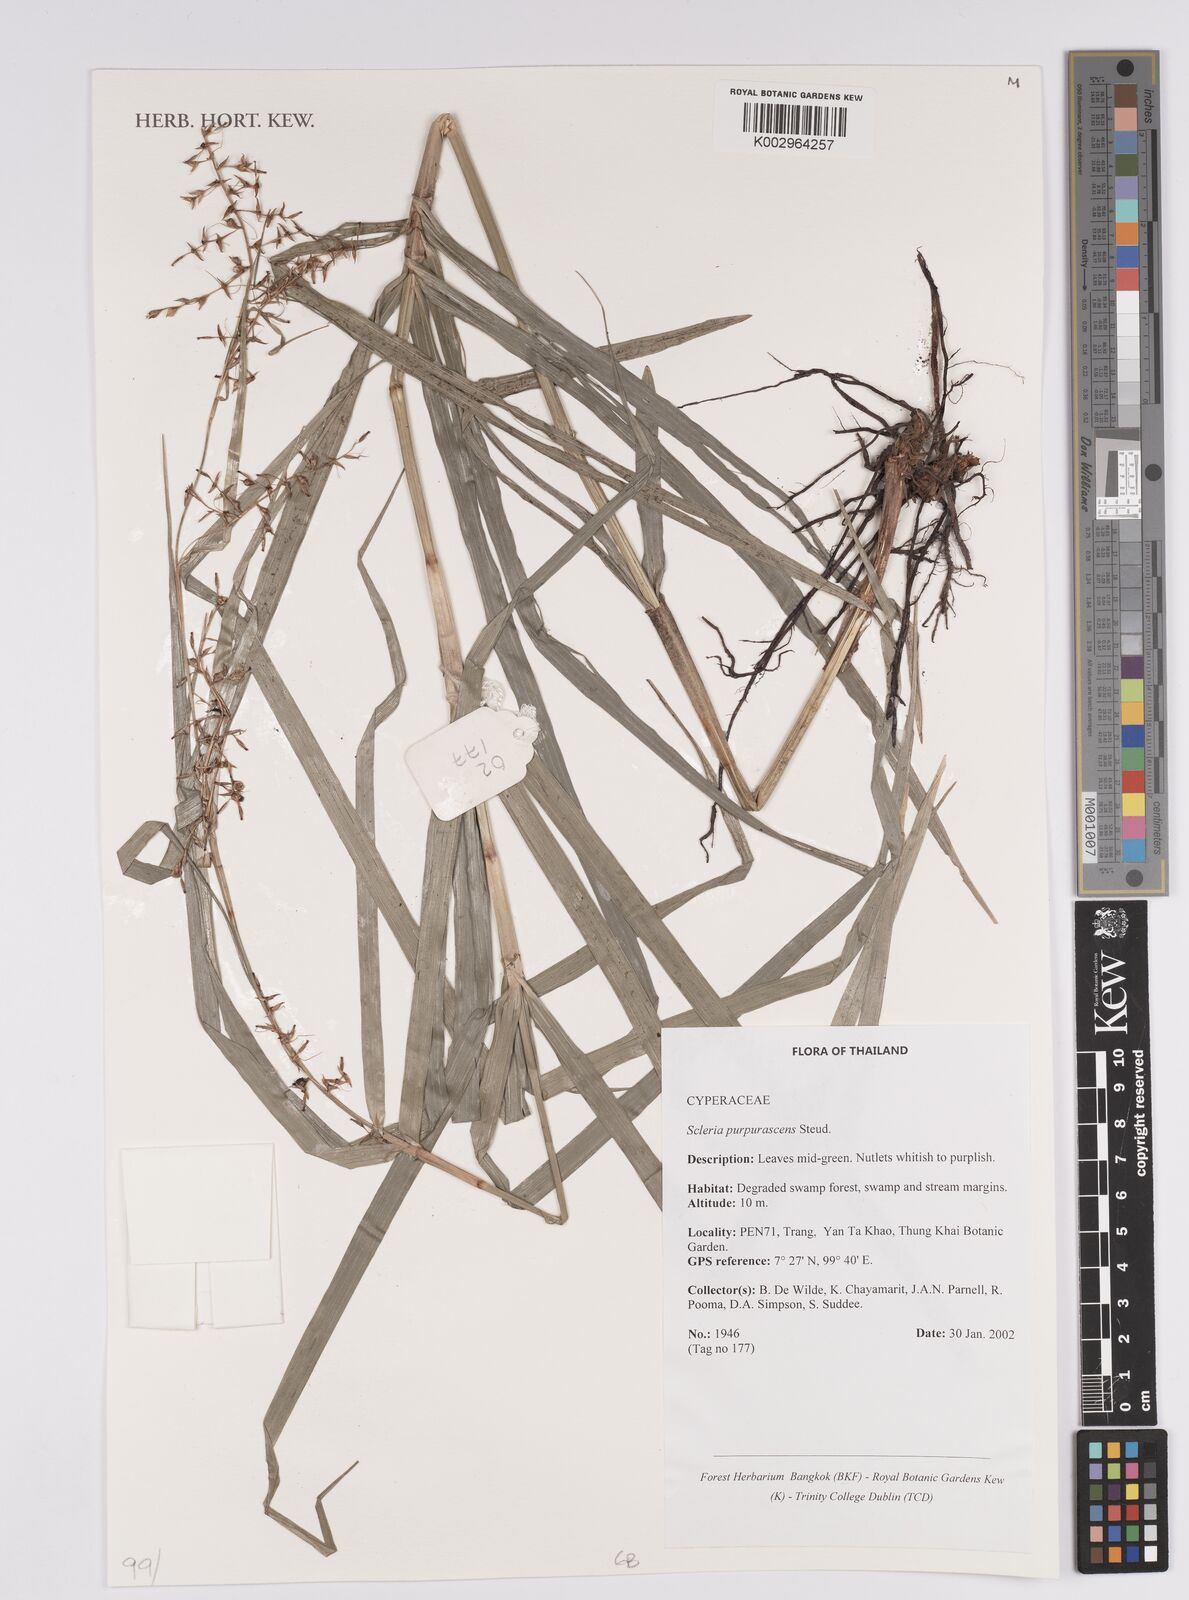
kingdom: Plantae
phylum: Tracheophyta
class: Liliopsida
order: Poales
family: Cyperaceae
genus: Scleria
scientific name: Scleria purpurascens
